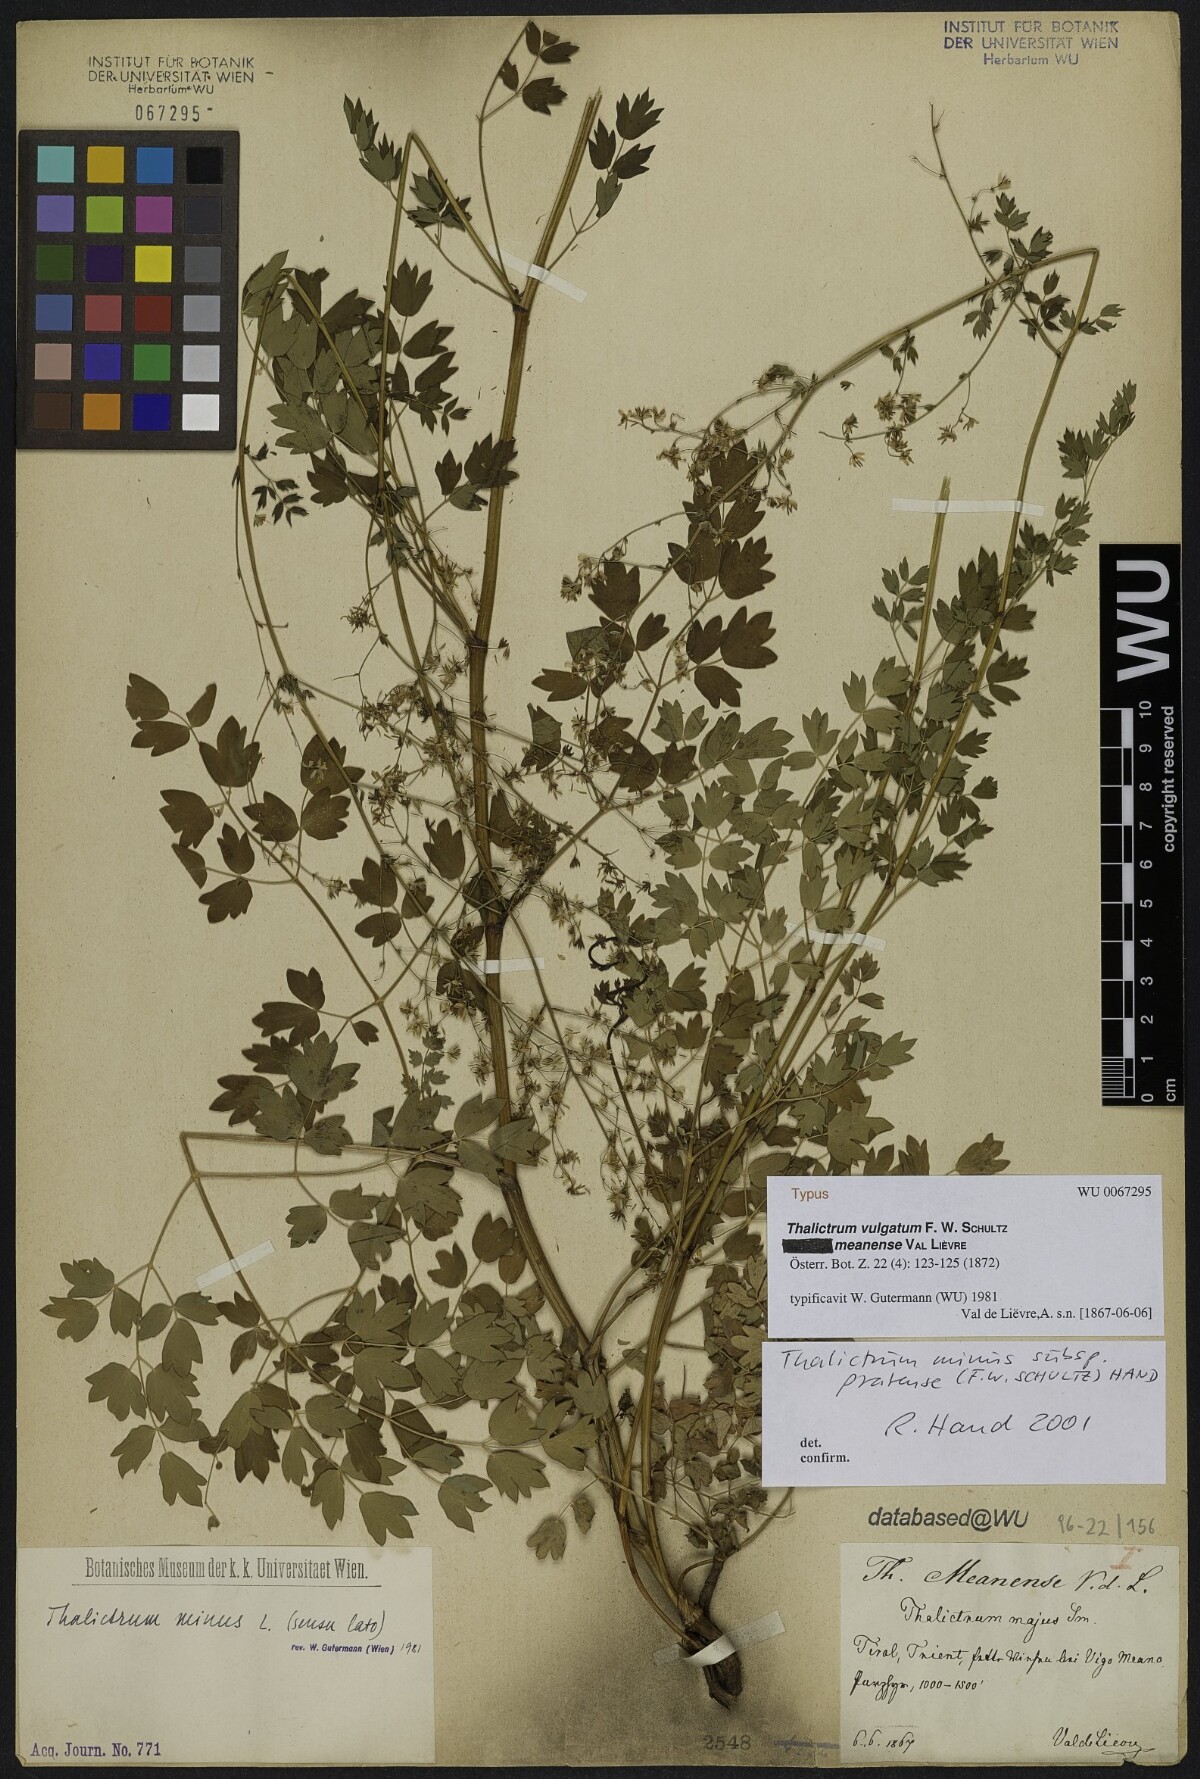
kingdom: Plantae
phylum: Tracheophyta
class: Magnoliopsida
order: Ranunculales
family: Ranunculaceae
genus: Thalictrum
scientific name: Thalictrum minus
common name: Lesser meadow-rue
